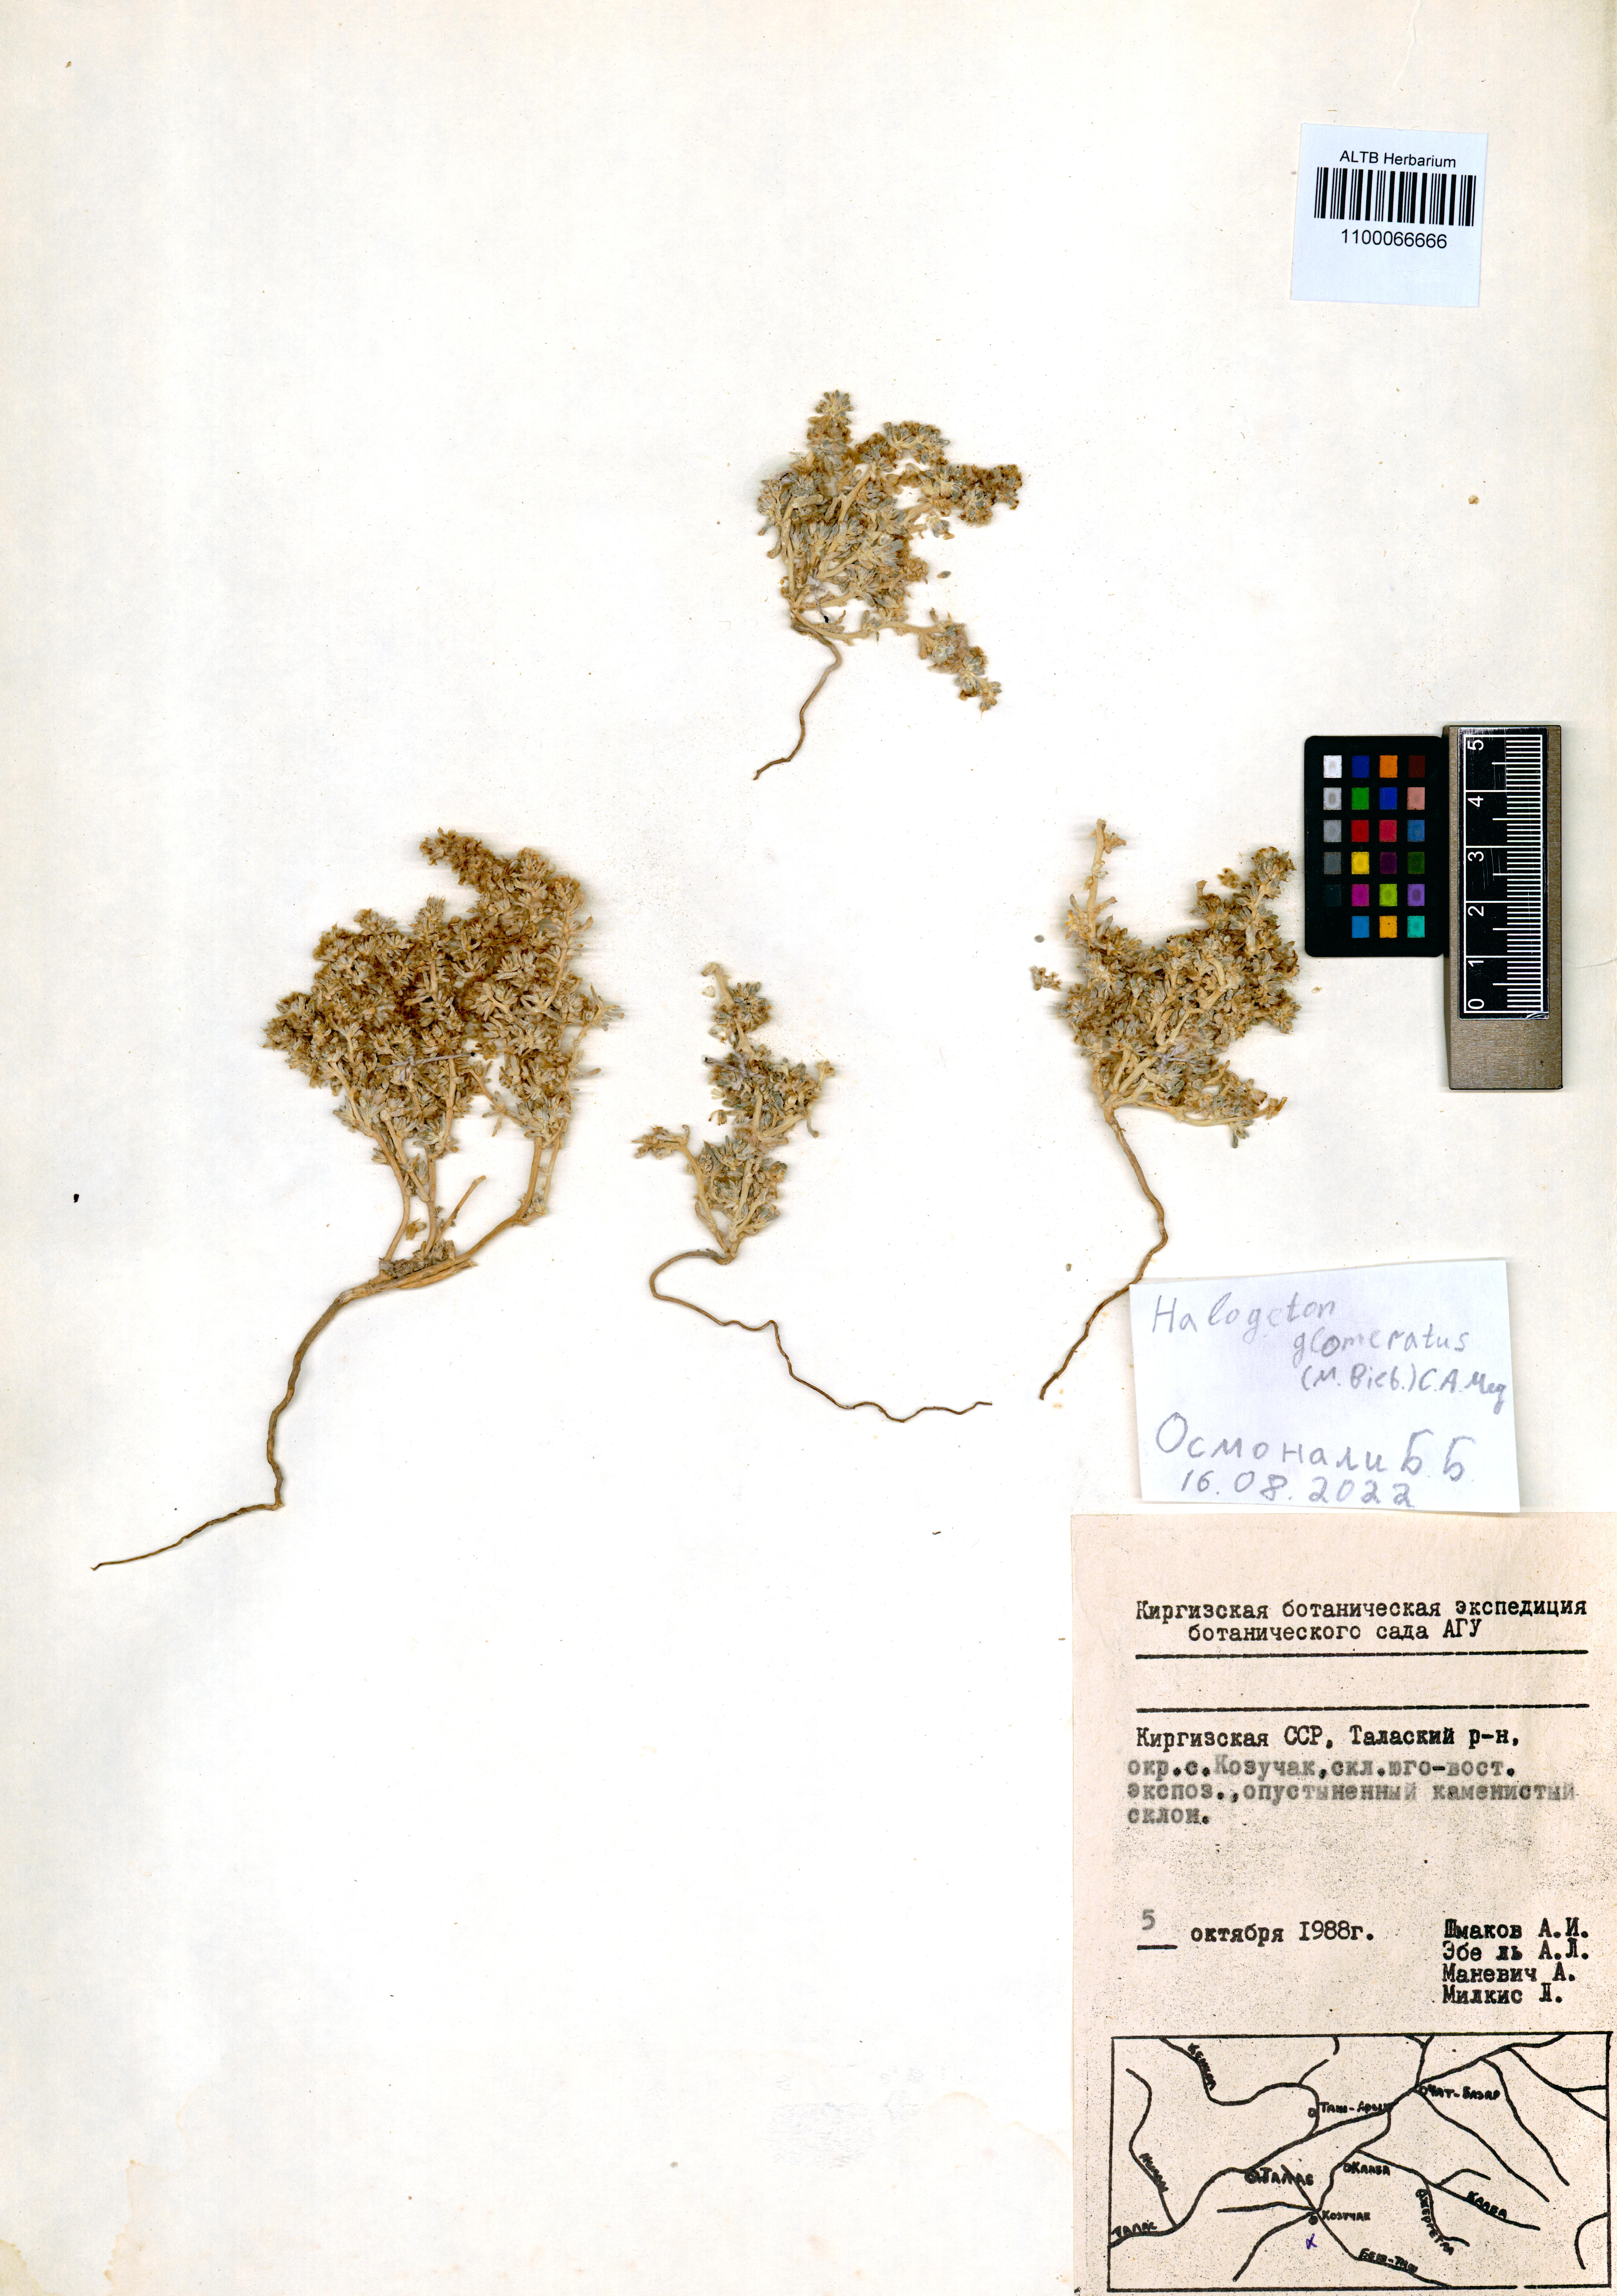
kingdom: Plantae
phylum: Tracheophyta
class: Magnoliopsida
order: Boraginales
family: Boraginaceae
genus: Rindera
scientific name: Rindera tetraspis
